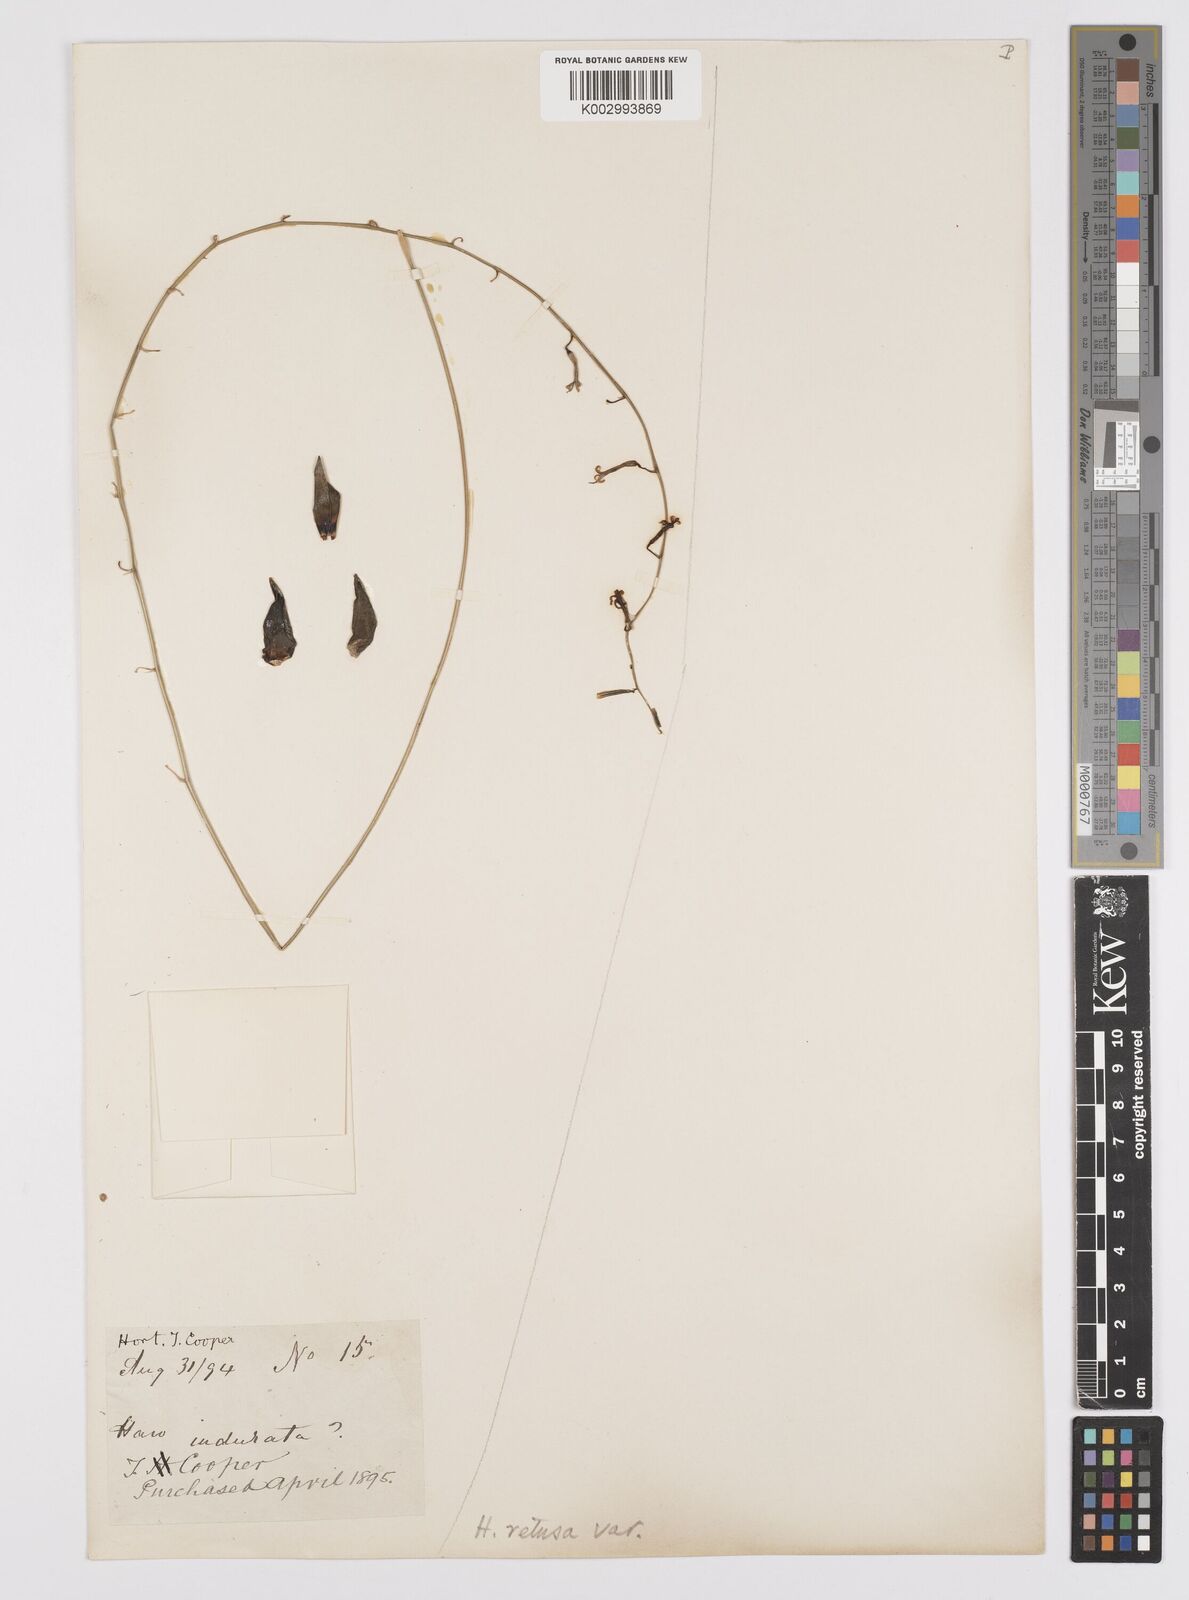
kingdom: Plantae
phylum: Tracheophyta
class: Liliopsida
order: Asparagales
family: Asphodelaceae
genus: Haworthia
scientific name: Haworthia retusa
